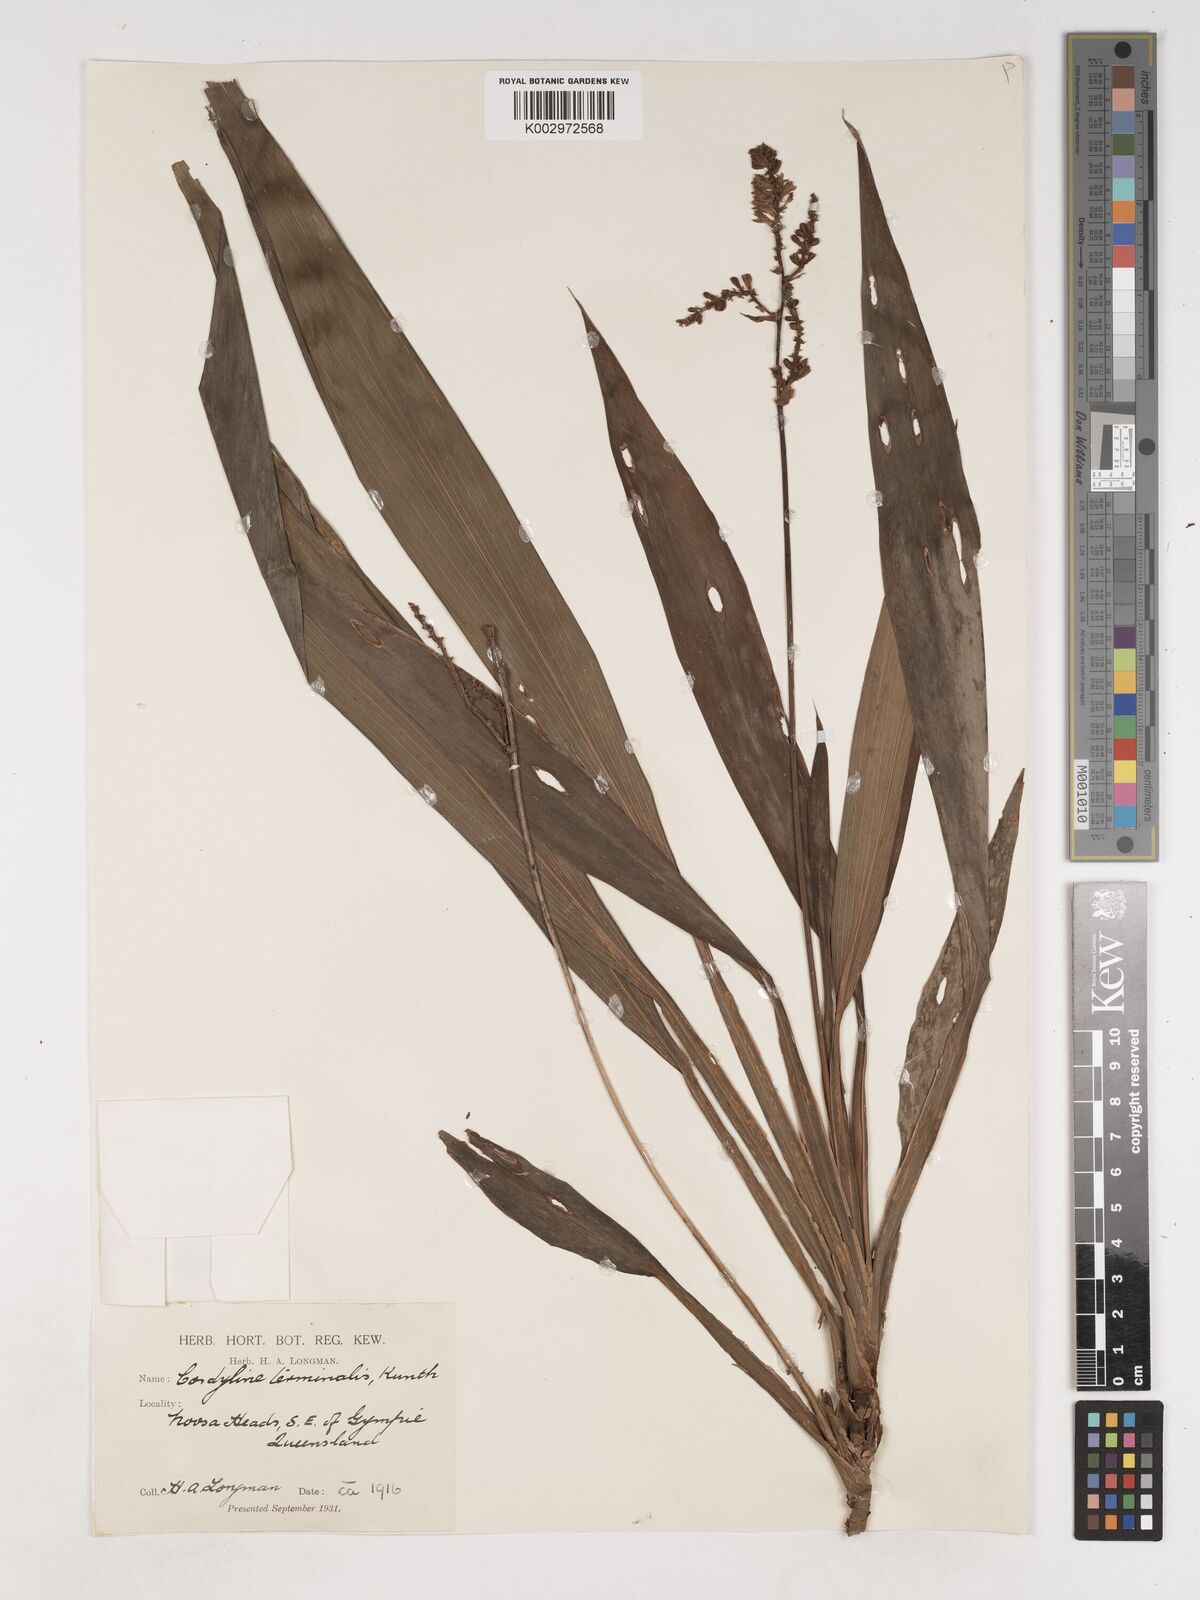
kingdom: Plantae
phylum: Tracheophyta
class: Liliopsida
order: Asparagales
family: Asparagaceae
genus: Cordyline
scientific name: Cordyline fruticosa
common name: Good-luck-plant
